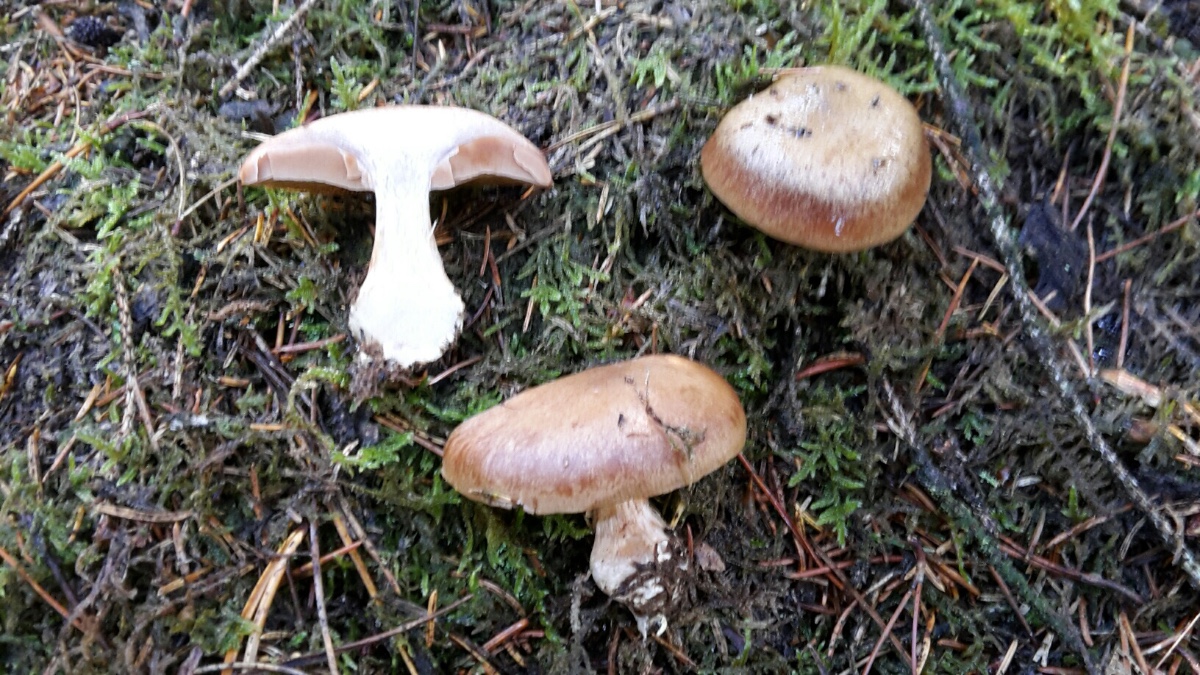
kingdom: Fungi
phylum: Basidiomycota
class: Agaricomycetes
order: Agaricales
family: Cortinariaceae
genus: Thaxterogaster
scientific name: Thaxterogaster sphagnophilus
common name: vandplettet slørhat
